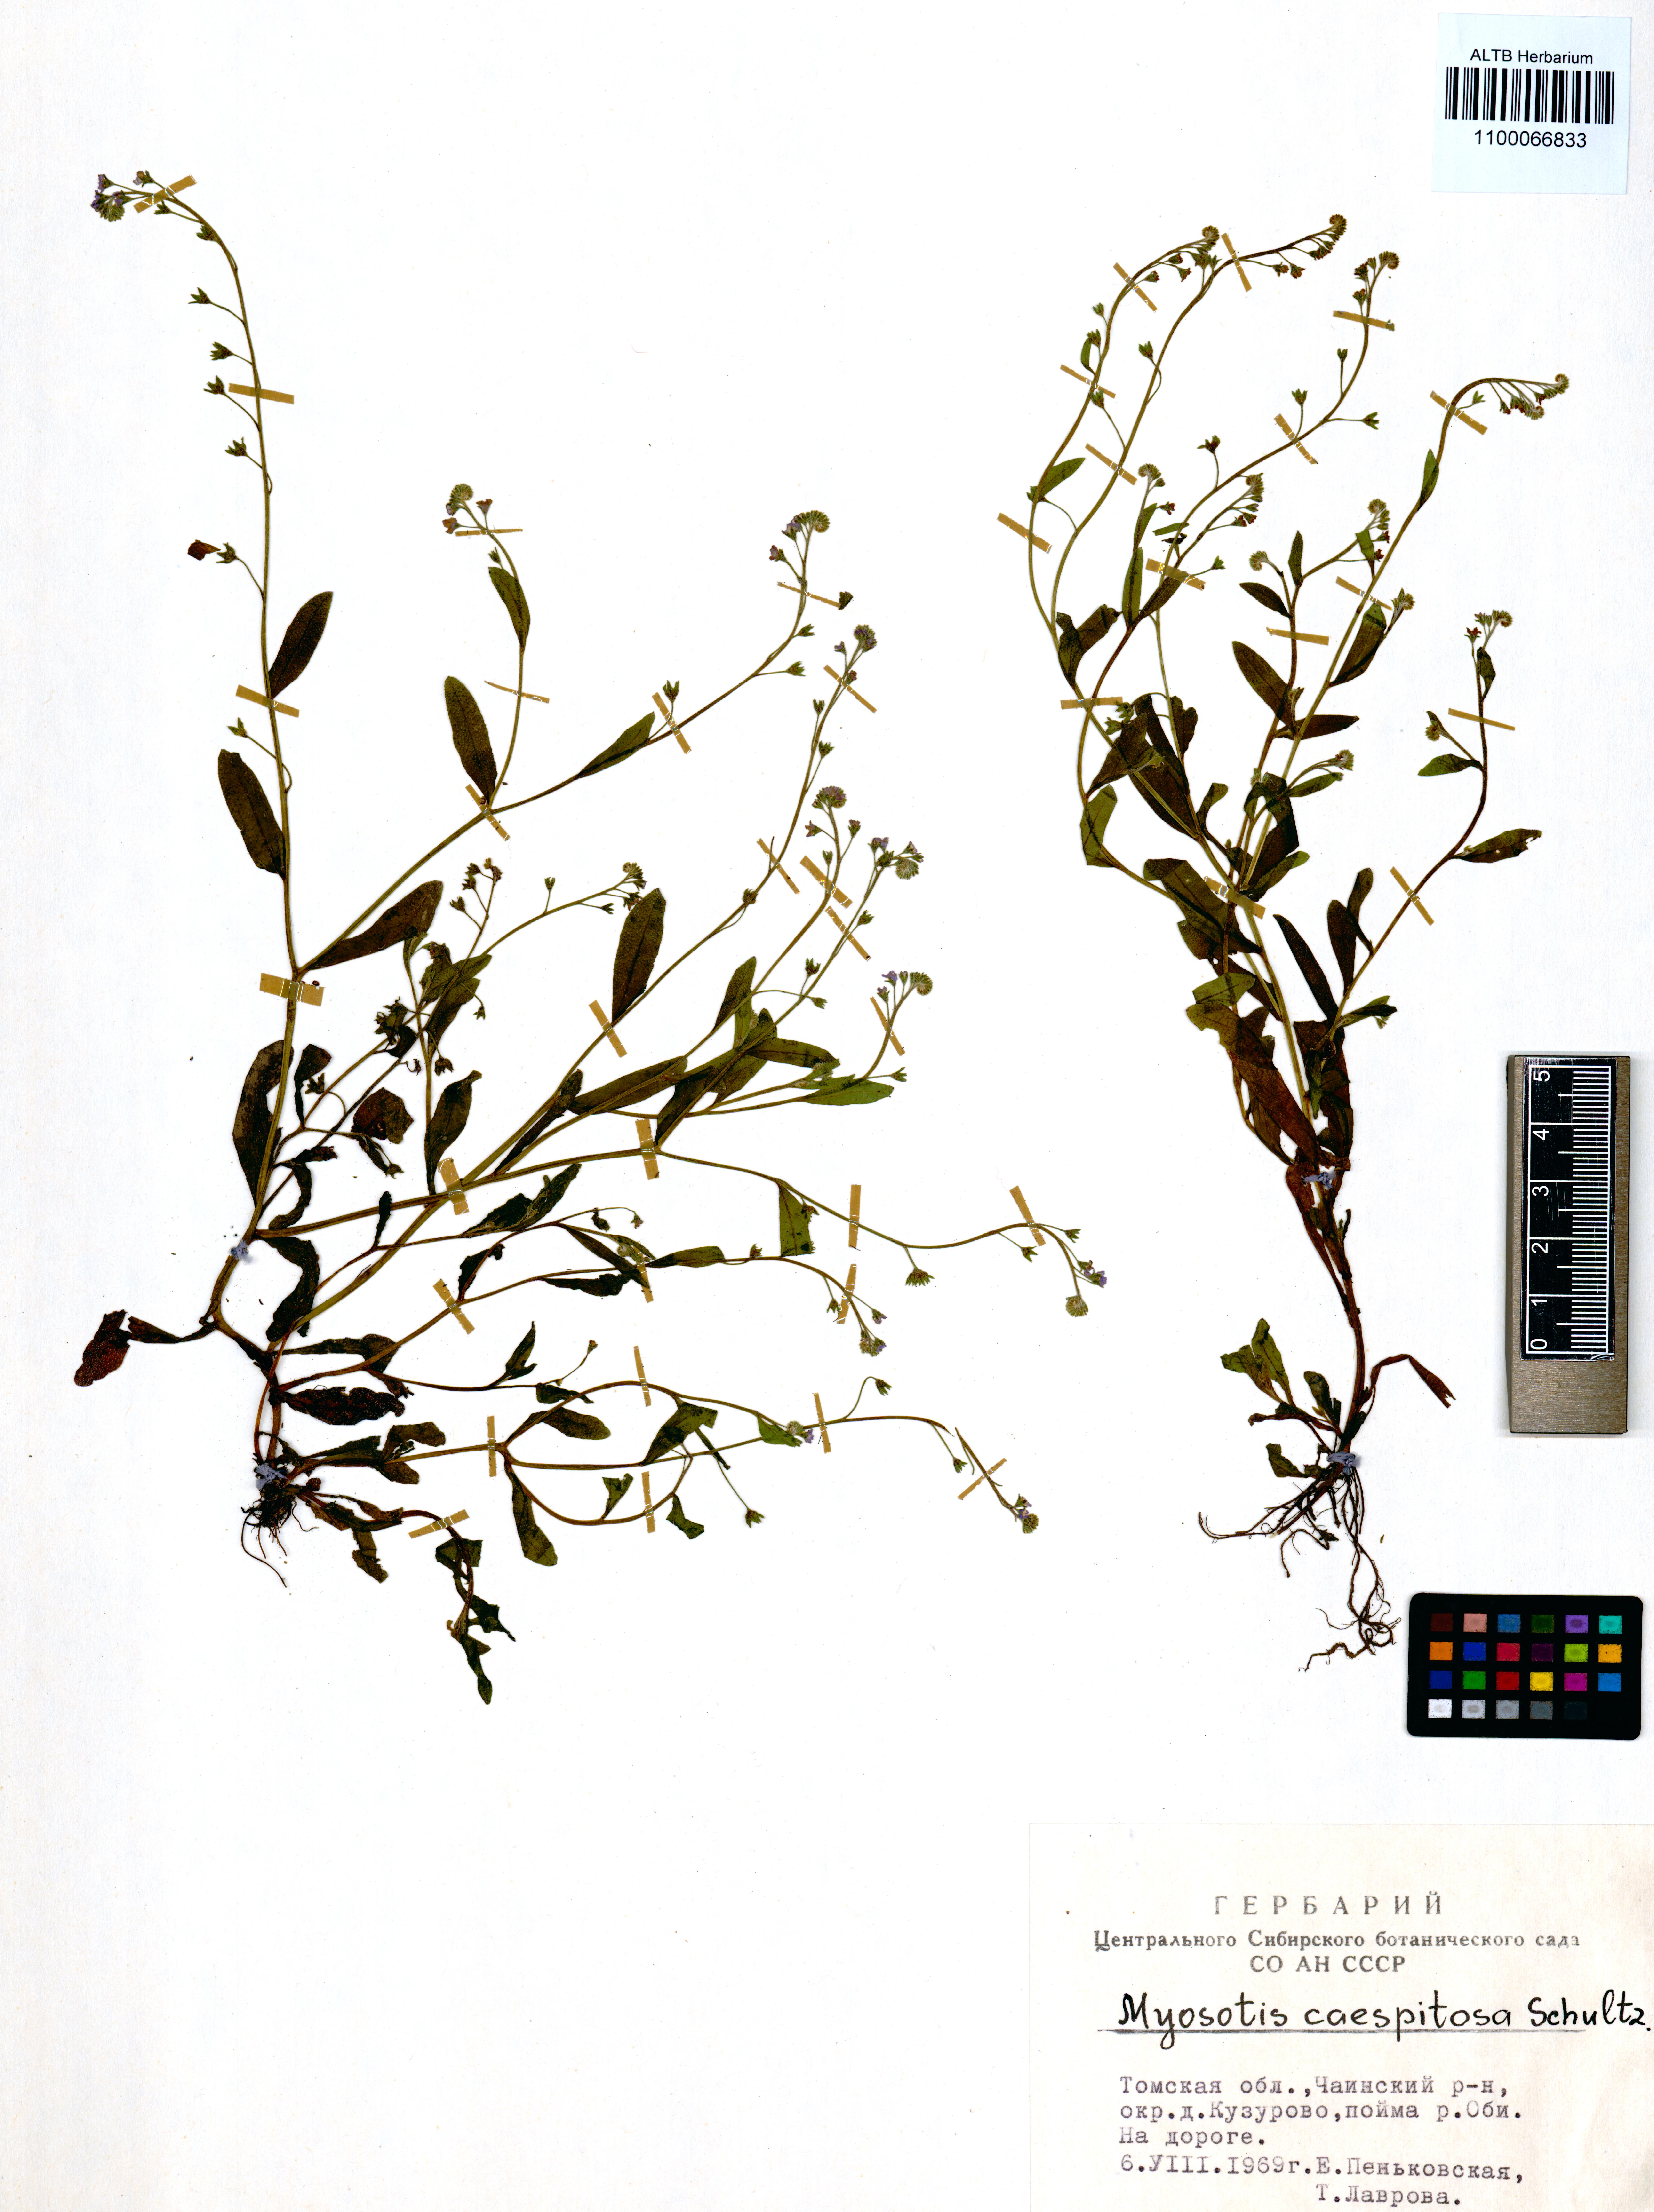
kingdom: Plantae
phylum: Tracheophyta
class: Magnoliopsida
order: Boraginales
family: Boraginaceae
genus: Myosotis
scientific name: Myosotis laxa
